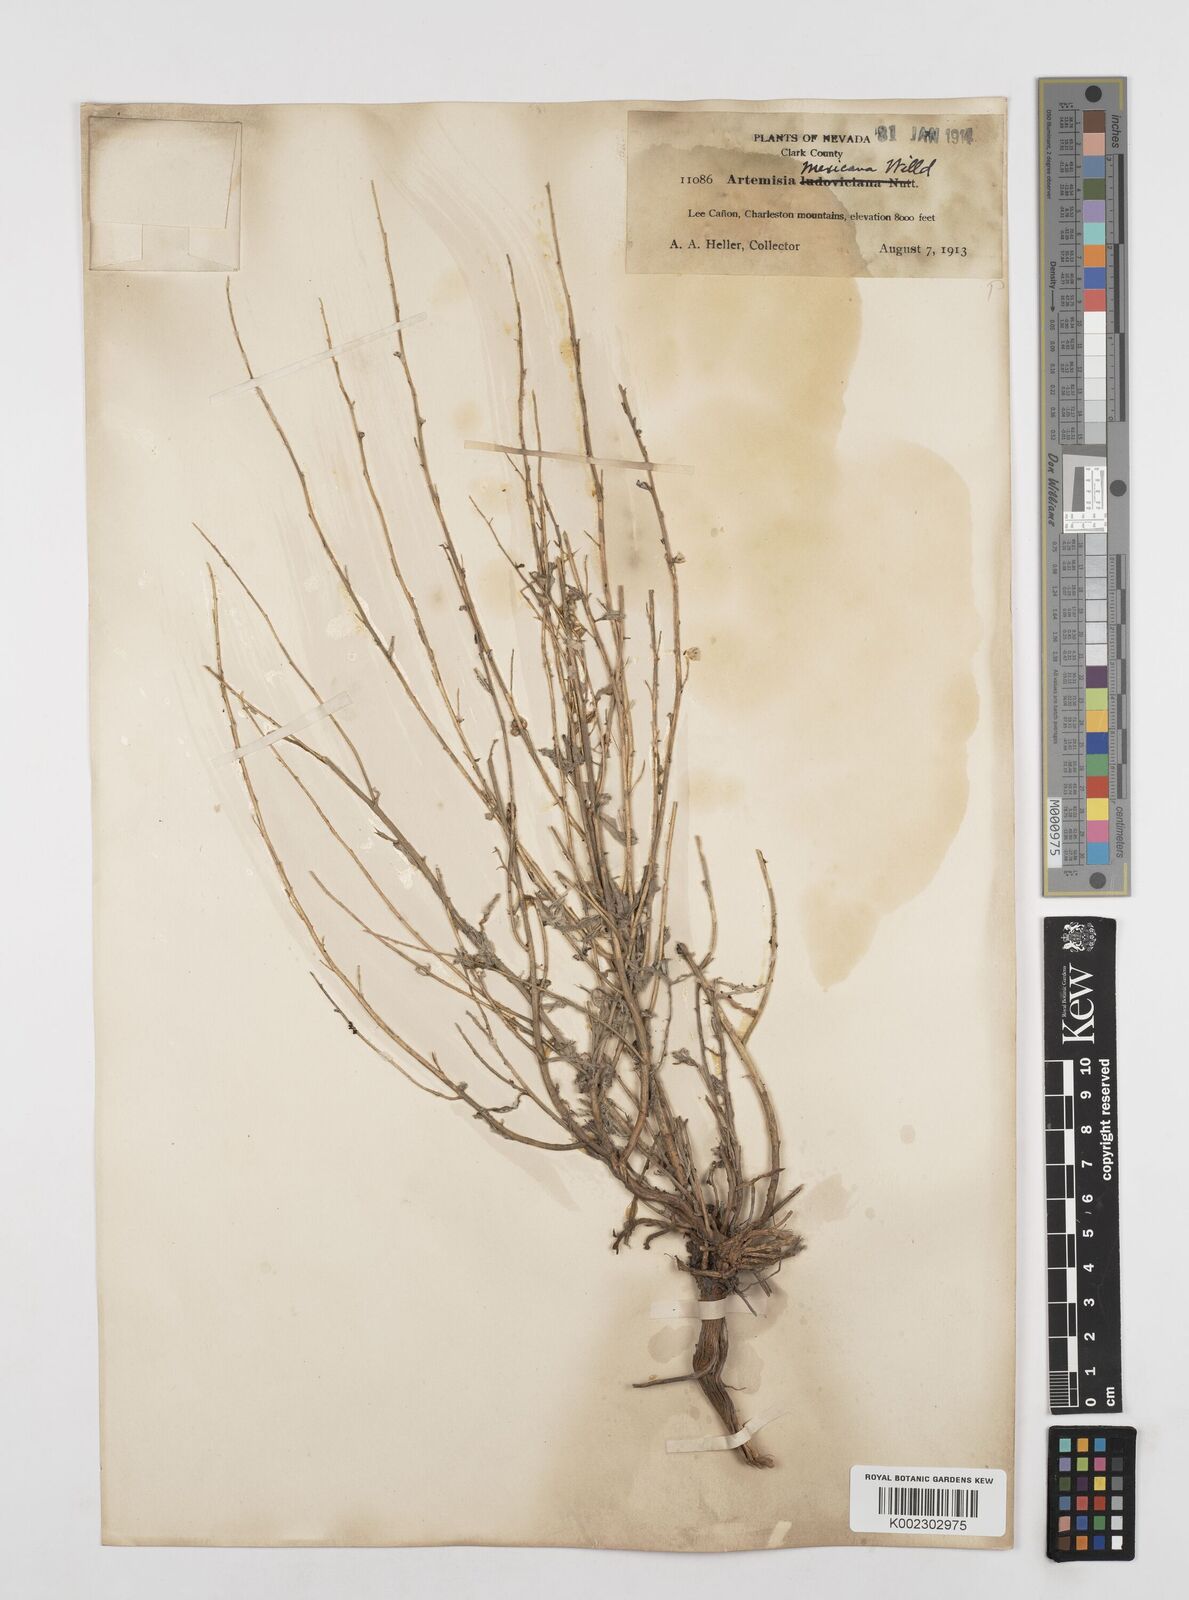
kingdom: Plantae
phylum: Tracheophyta
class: Magnoliopsida
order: Asterales
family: Asteraceae
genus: Artemisia
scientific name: Artemisia ludoviciana
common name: Western mugwort
